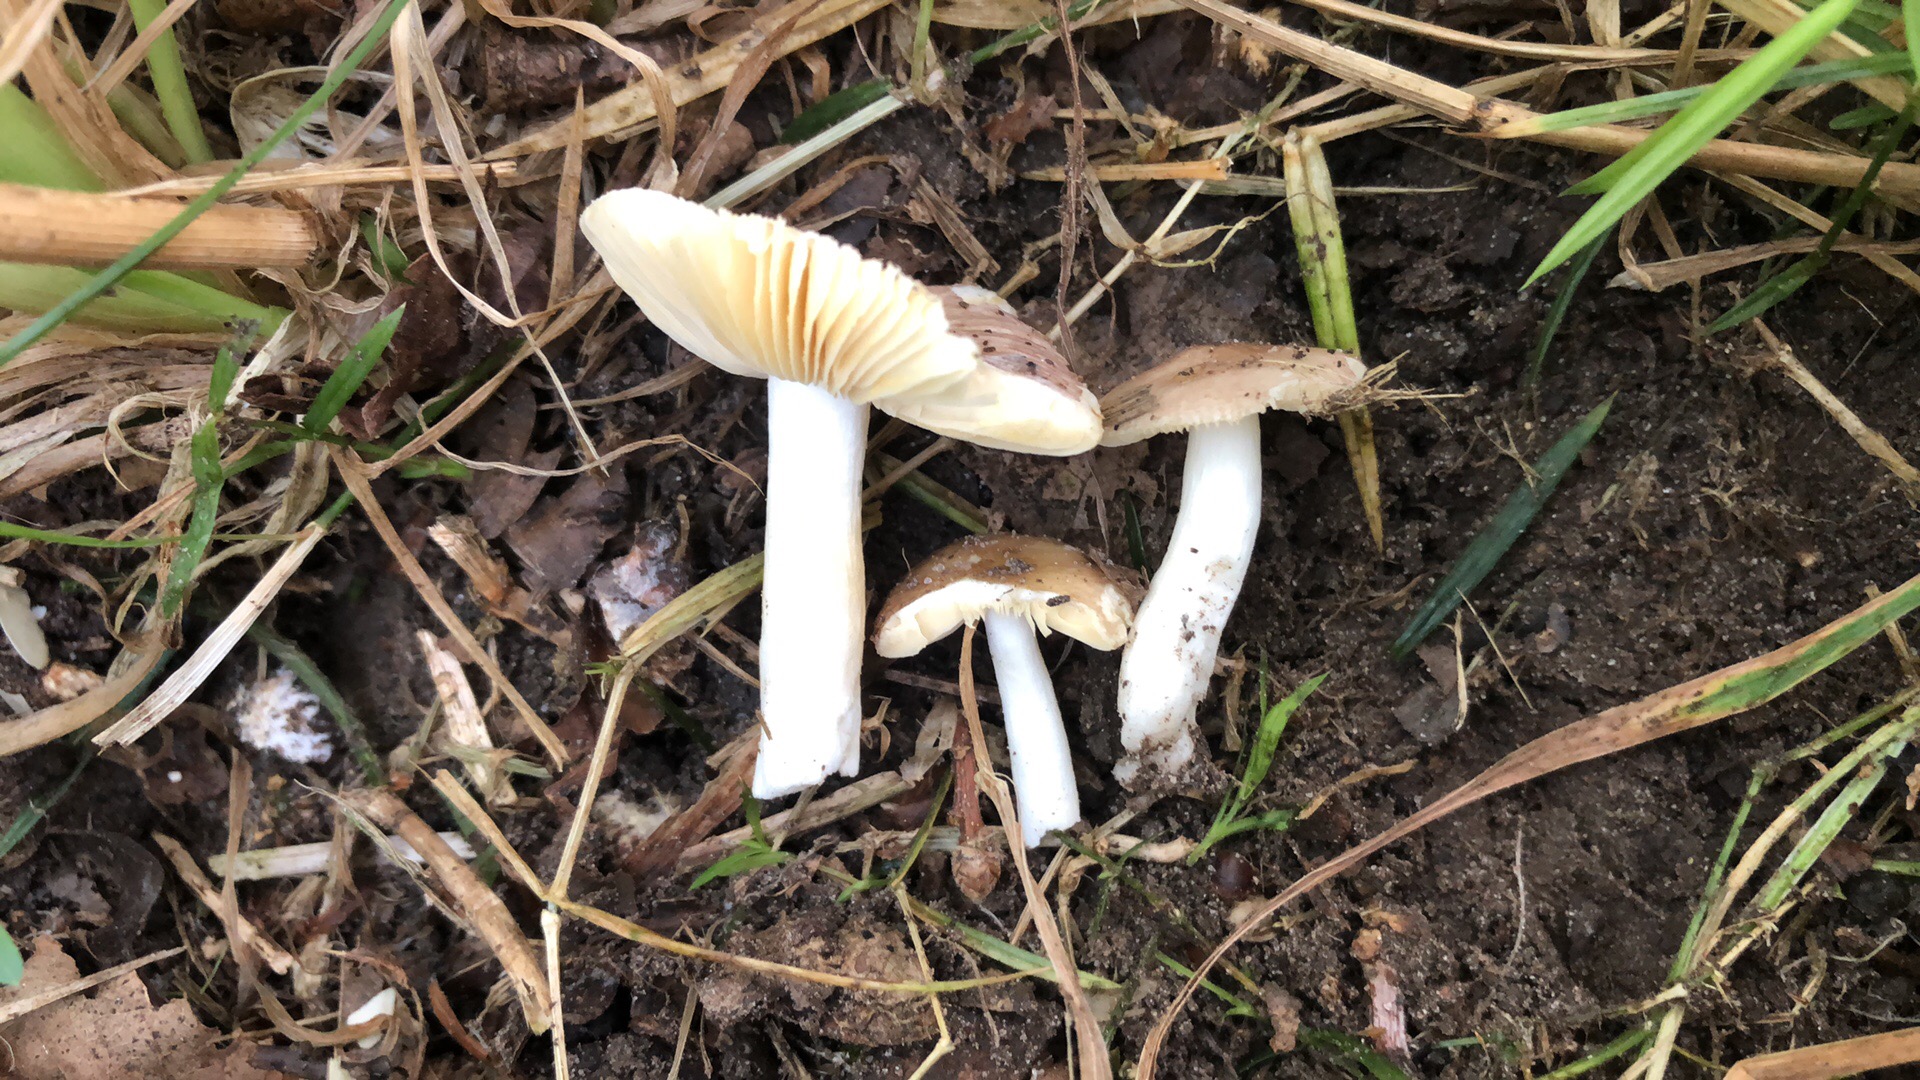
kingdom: Fungi
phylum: Basidiomycota
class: Agaricomycetes
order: Russulales
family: Russulaceae
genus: Russula
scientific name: Russula odorata
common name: duft-skørhat
